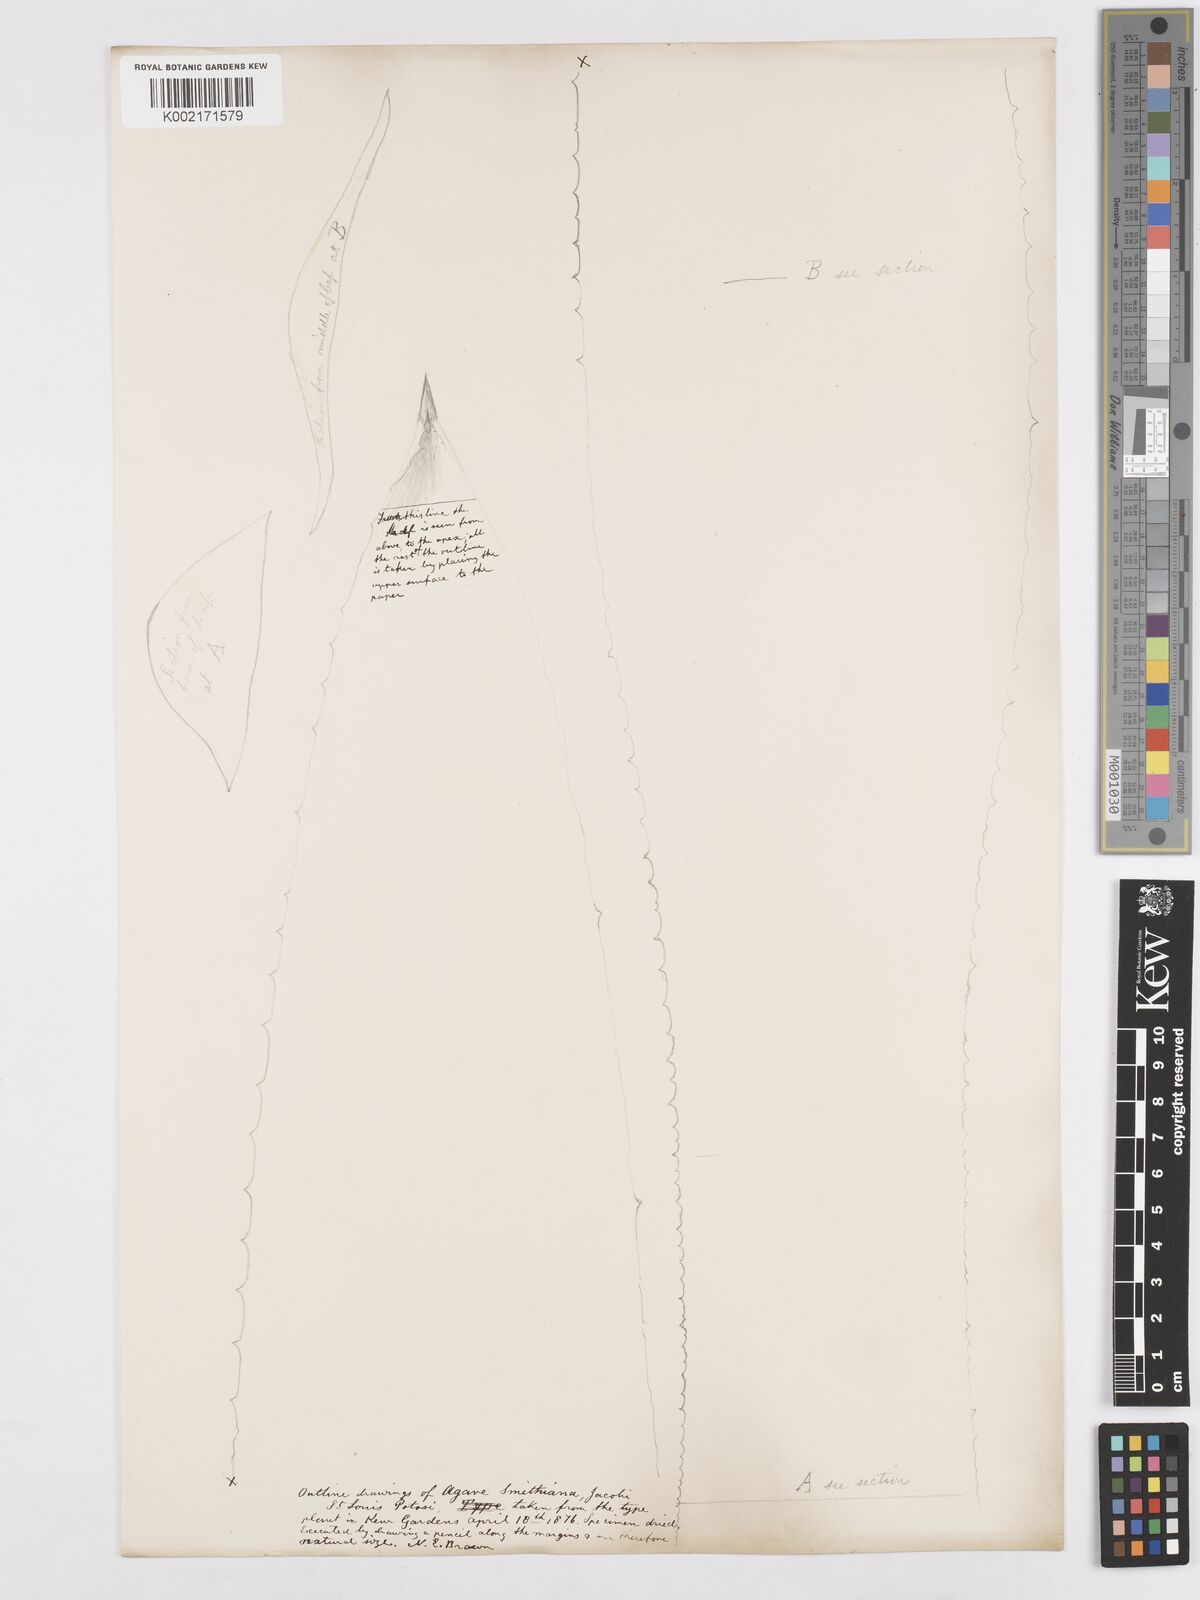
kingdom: Plantae
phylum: Tracheophyta
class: Liliopsida
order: Asparagales
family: Asparagaceae
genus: Agave
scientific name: Agave smithiana
